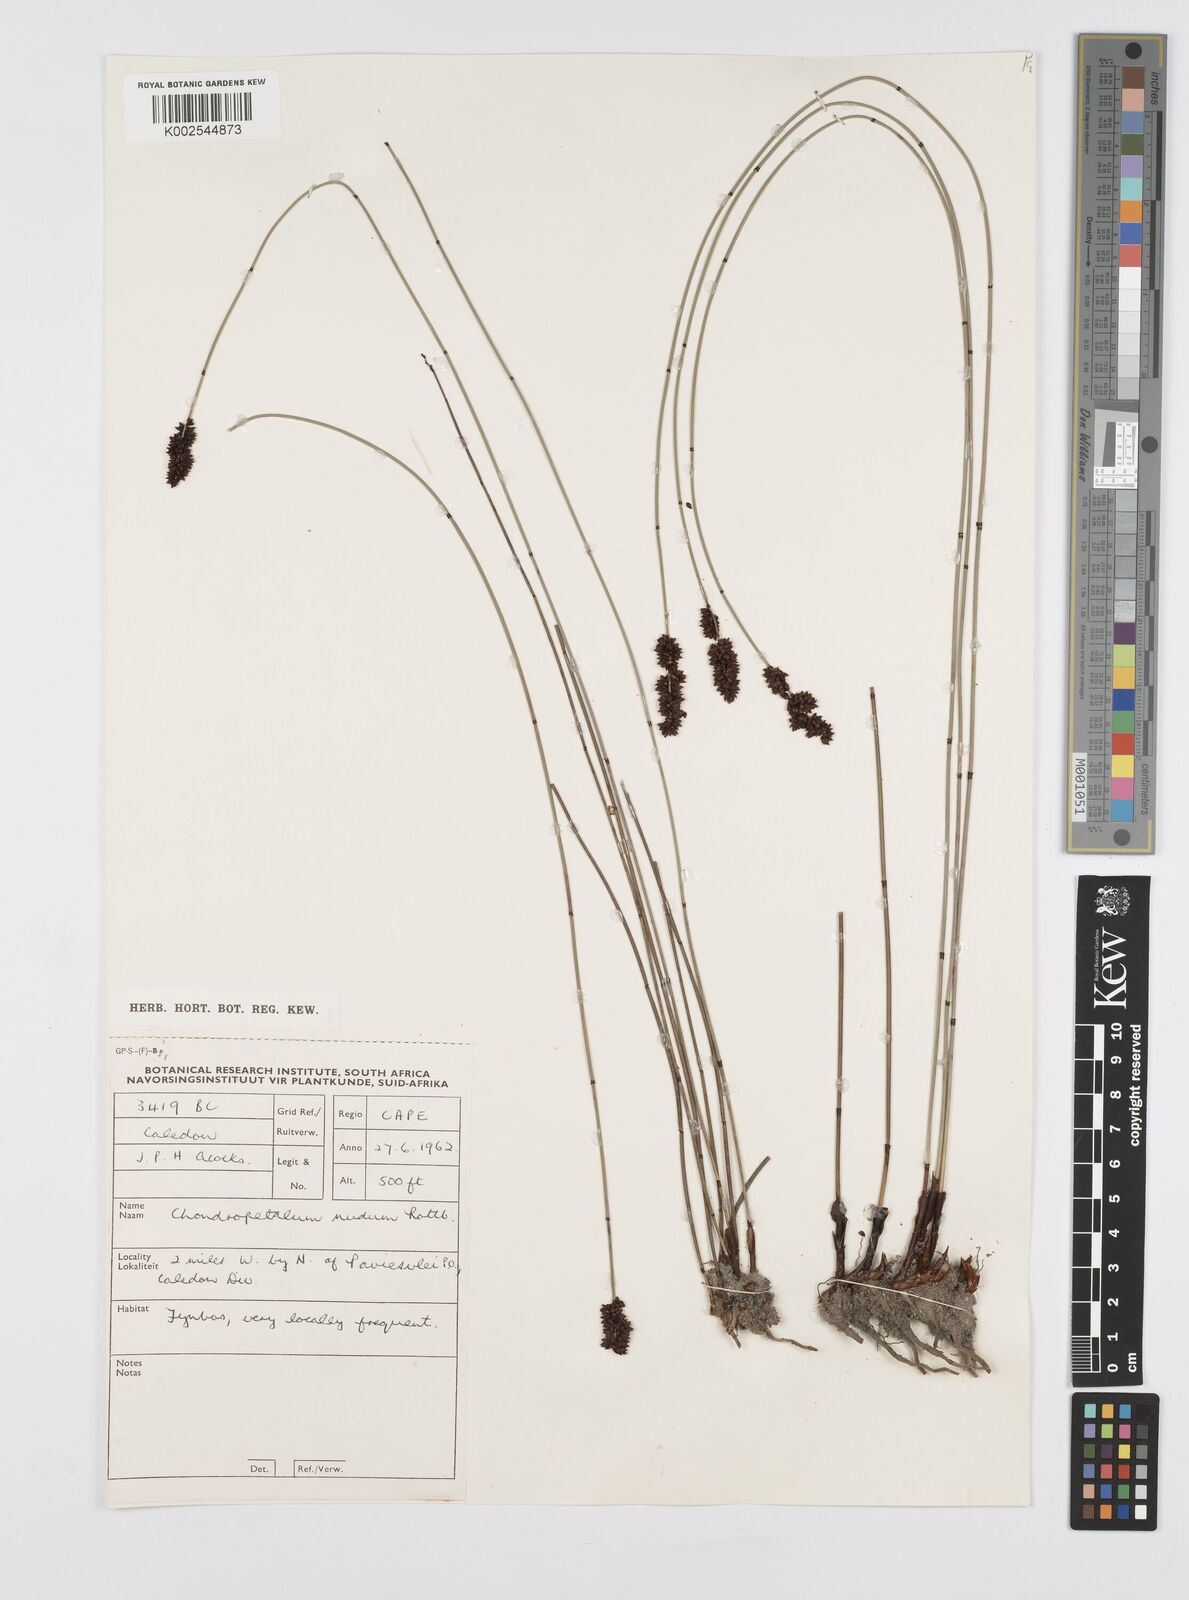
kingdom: Plantae
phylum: Tracheophyta
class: Liliopsida
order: Poales
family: Restionaceae
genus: Elegia
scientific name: Elegia nuda
